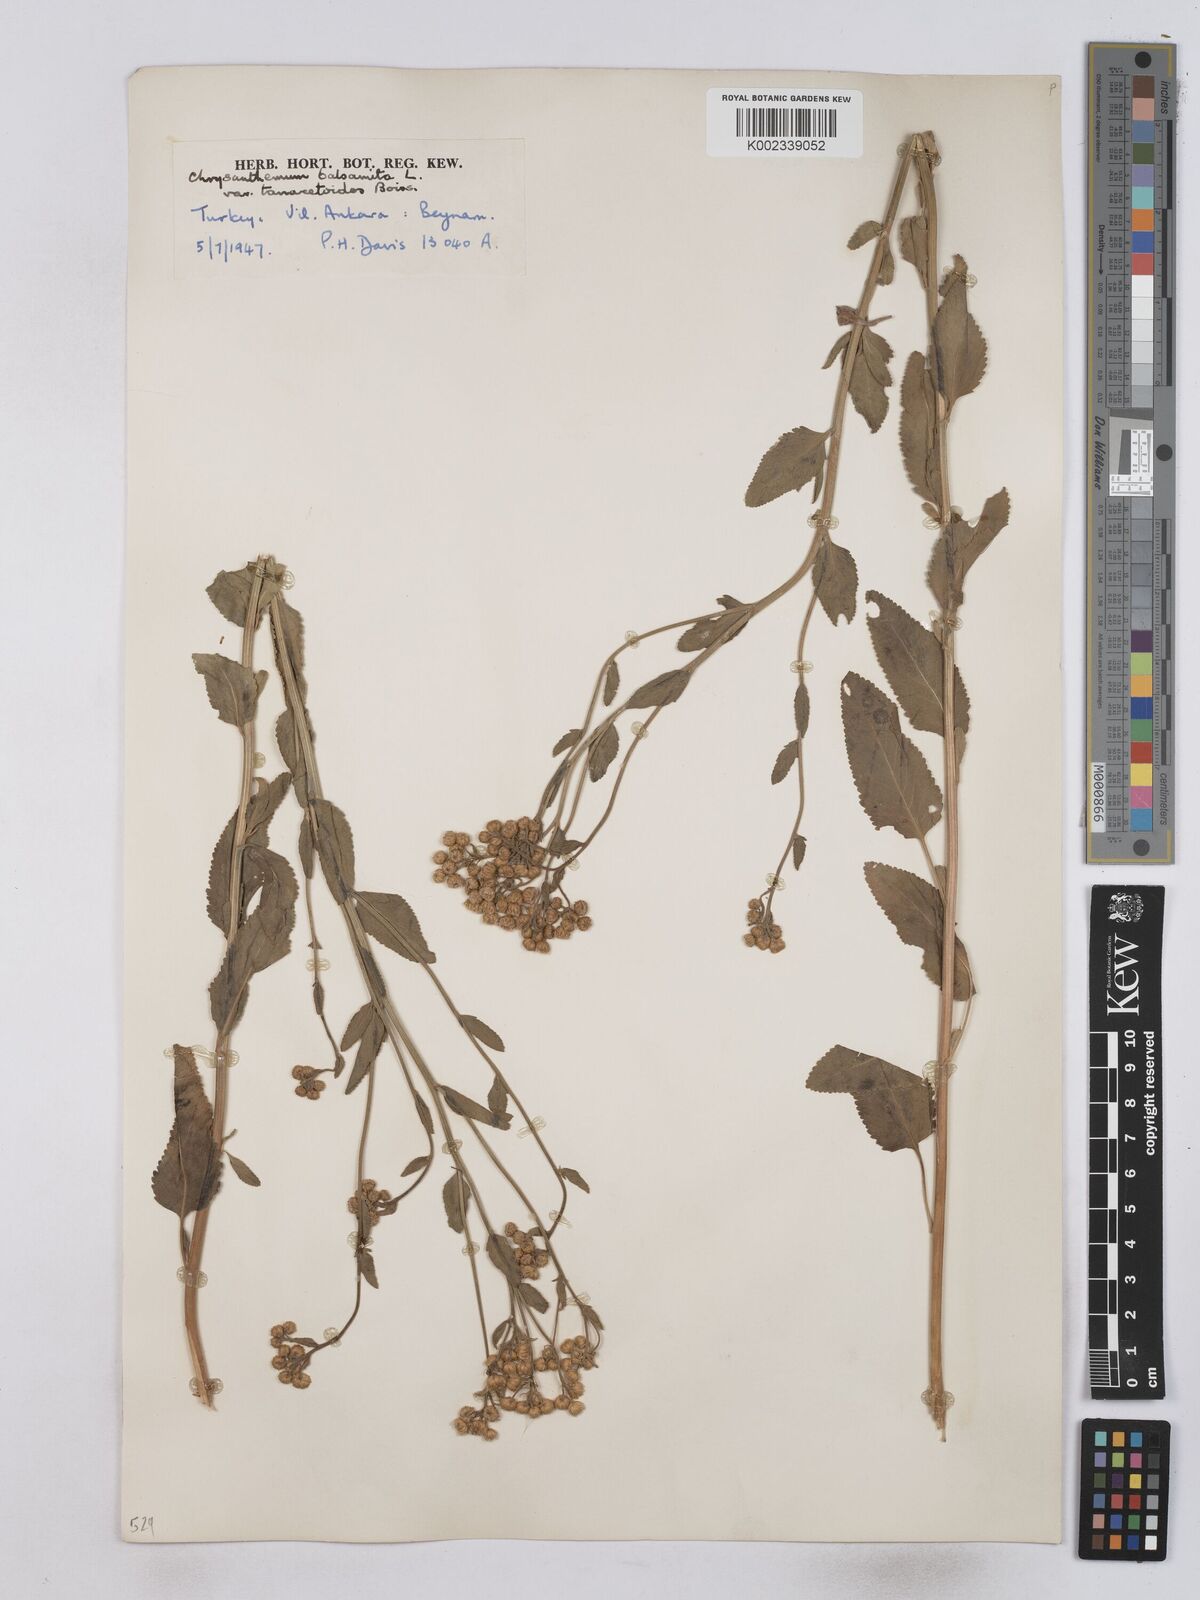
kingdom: Plantae
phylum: Tracheophyta
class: Magnoliopsida
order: Asterales
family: Asteraceae
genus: Tanacetum
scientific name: Tanacetum balsamita
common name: Costmary
